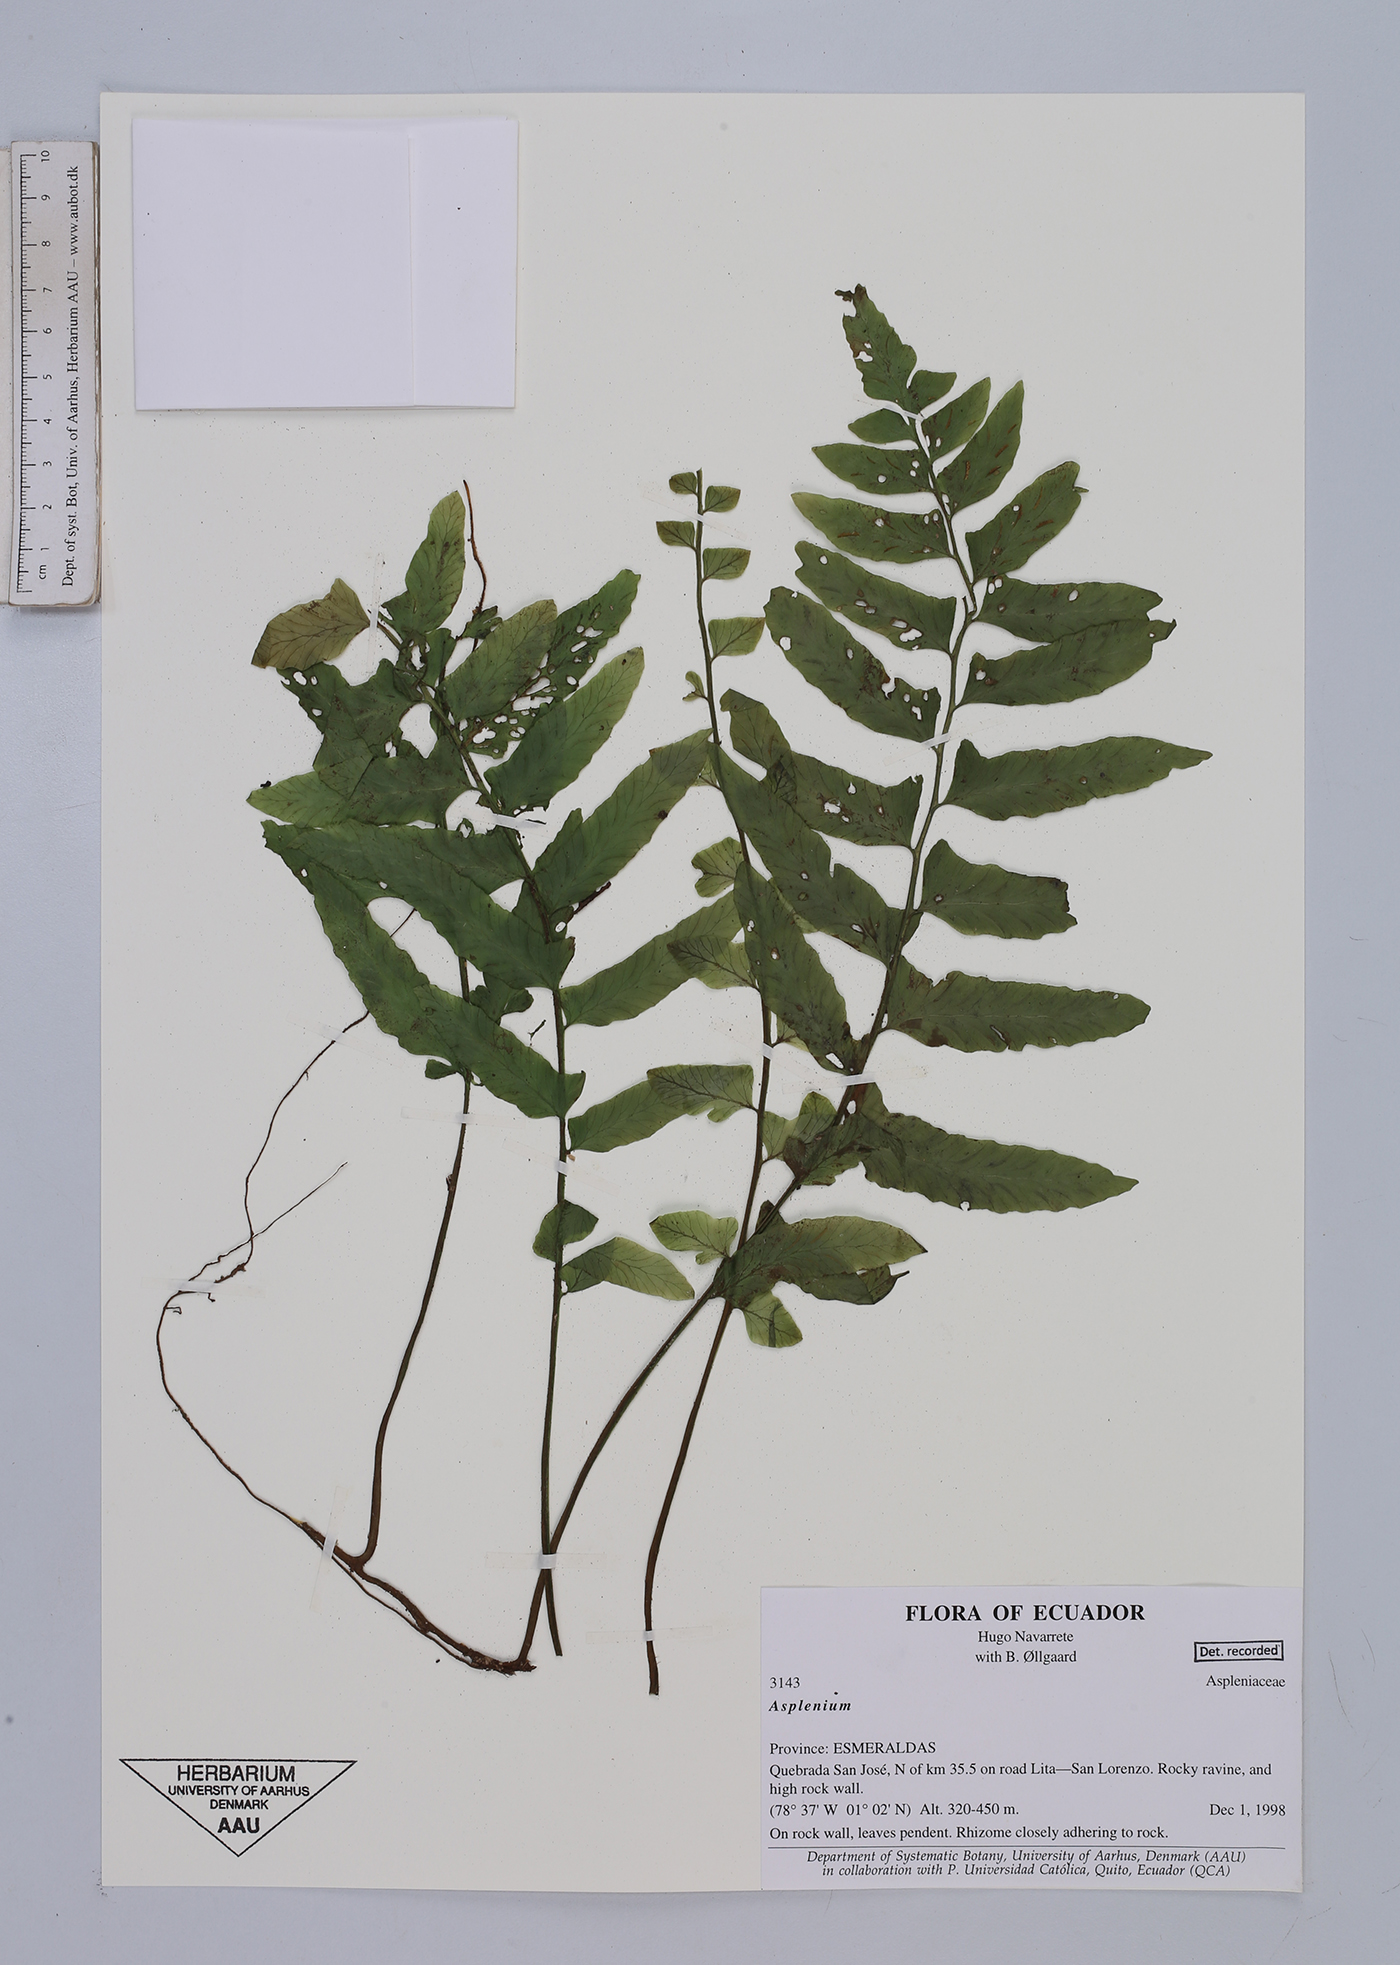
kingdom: Plantae
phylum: Tracheophyta
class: Polypodiopsida
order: Polypodiales
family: Aspleniaceae
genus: Asplenium
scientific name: Asplenium
